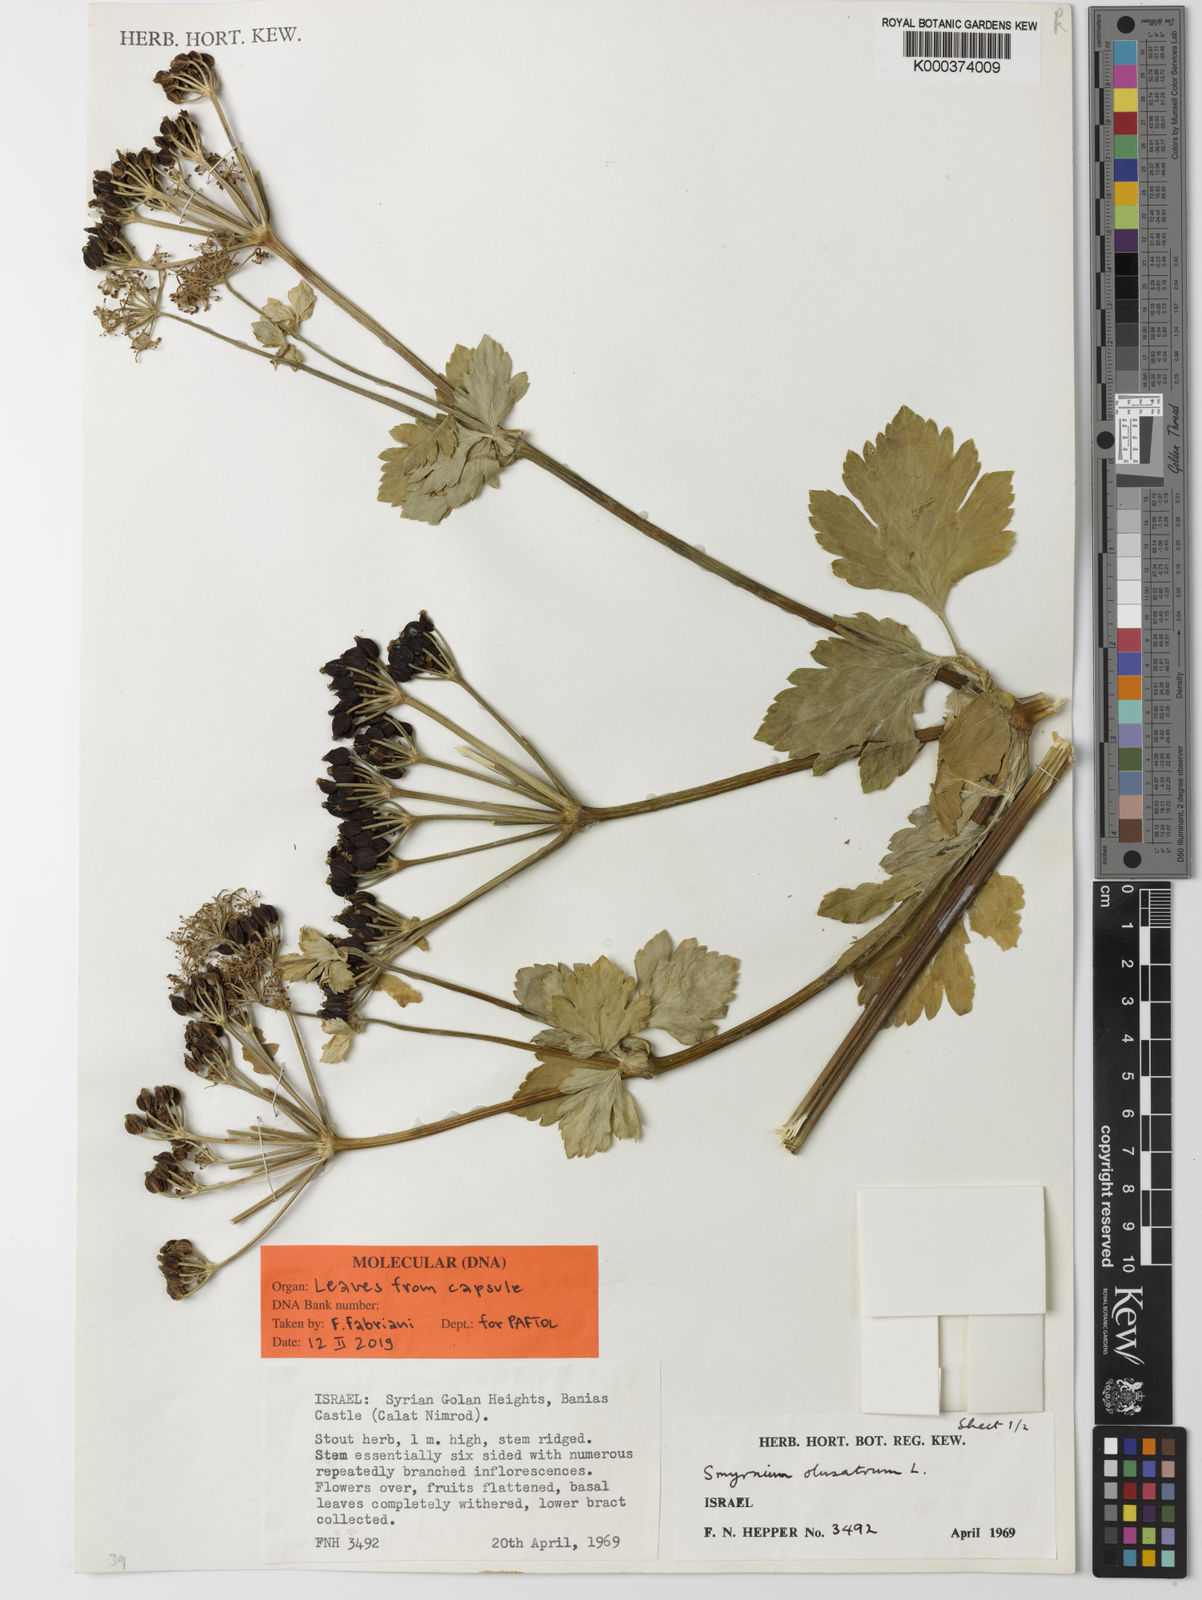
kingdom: Plantae
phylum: Tracheophyta
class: Magnoliopsida
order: Apiales
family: Apiaceae
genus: Smyrnium
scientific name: Smyrnium olusatrum
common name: Alexanders
